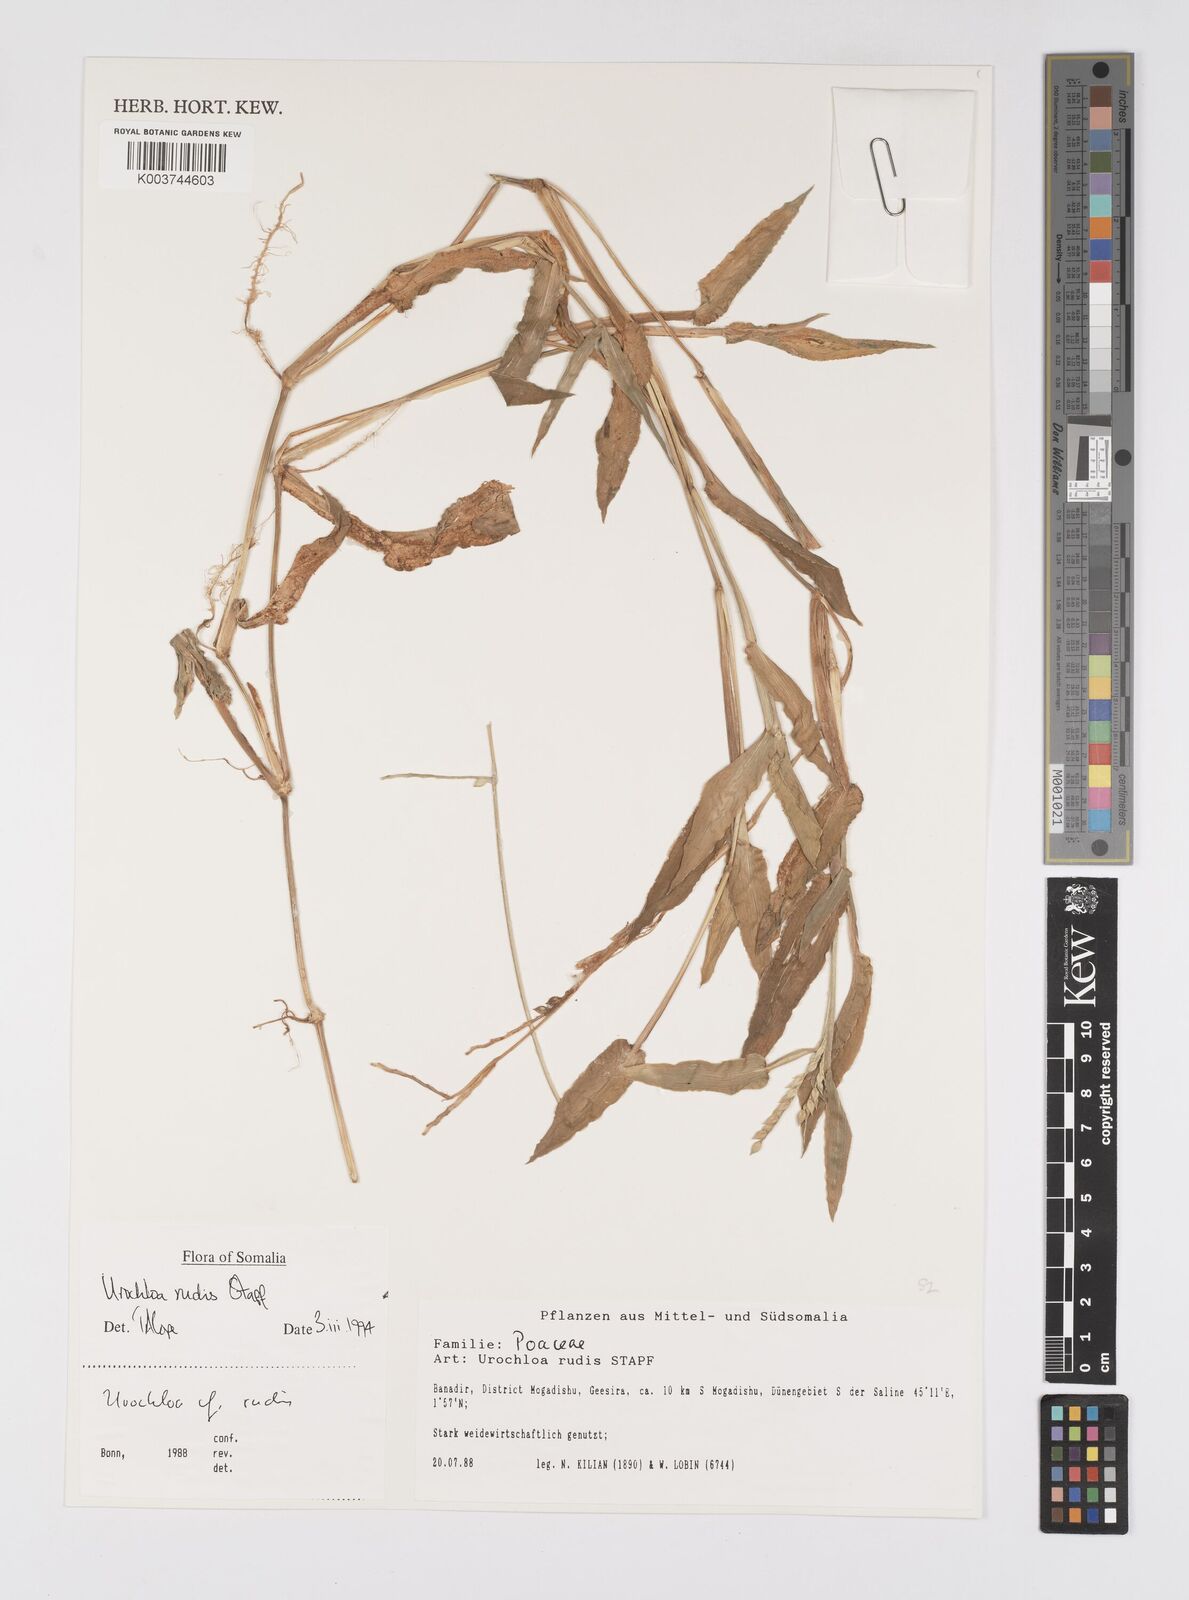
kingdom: Plantae
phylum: Tracheophyta
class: Liliopsida
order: Poales
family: Poaceae
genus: Urochloa
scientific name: Urochloa rudis
